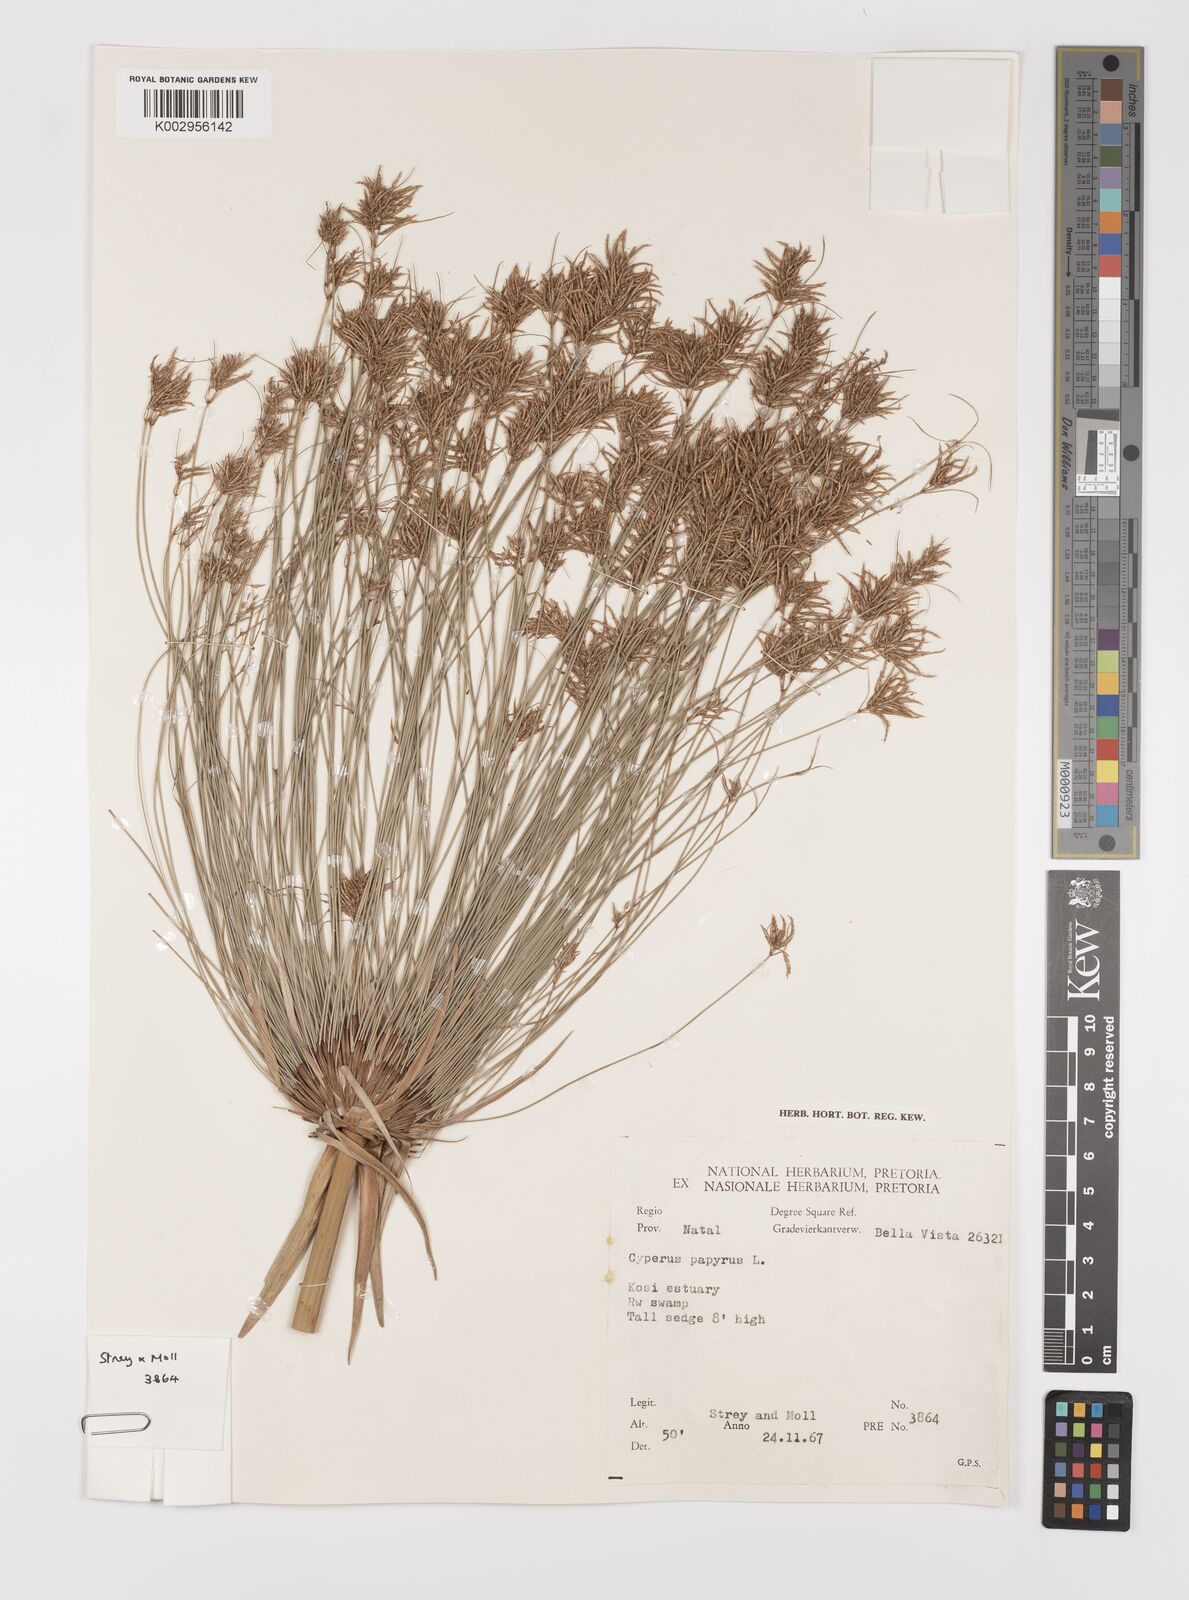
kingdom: Plantae
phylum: Tracheophyta
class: Liliopsida
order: Poales
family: Cyperaceae
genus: Cyperus
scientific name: Cyperus papyrus
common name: Papyrus
